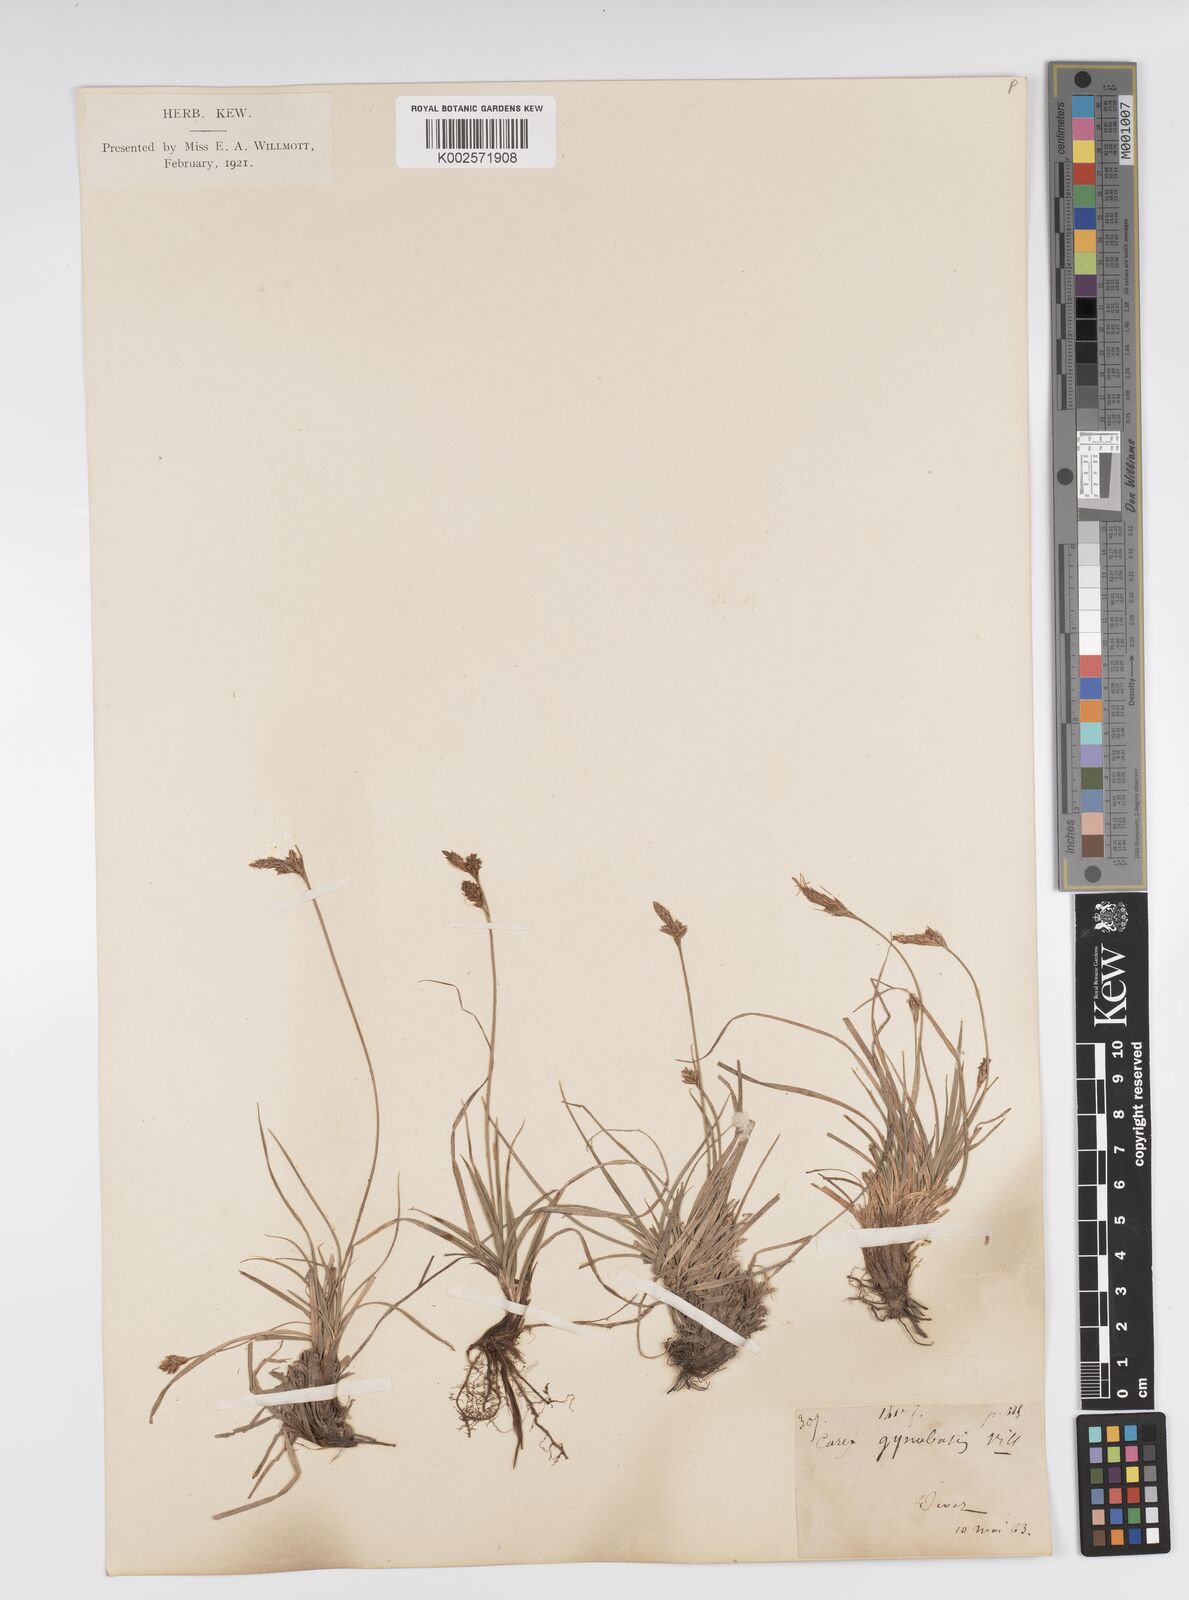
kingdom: Plantae
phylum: Tracheophyta
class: Liliopsida
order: Poales
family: Cyperaceae
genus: Carex
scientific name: Carex halleriana
